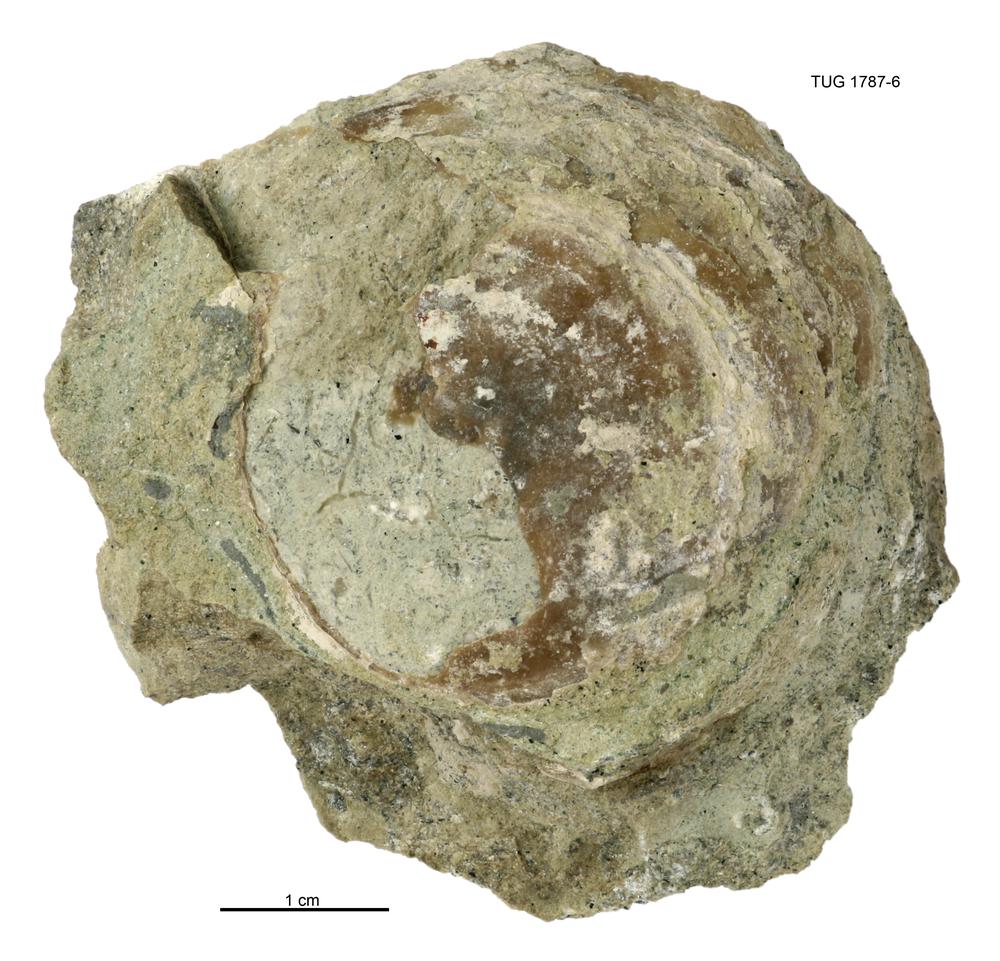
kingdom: Animalia
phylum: Mollusca
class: Monoplacophora
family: Metoptomatidae
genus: Metoptoma
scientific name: Metoptoma
